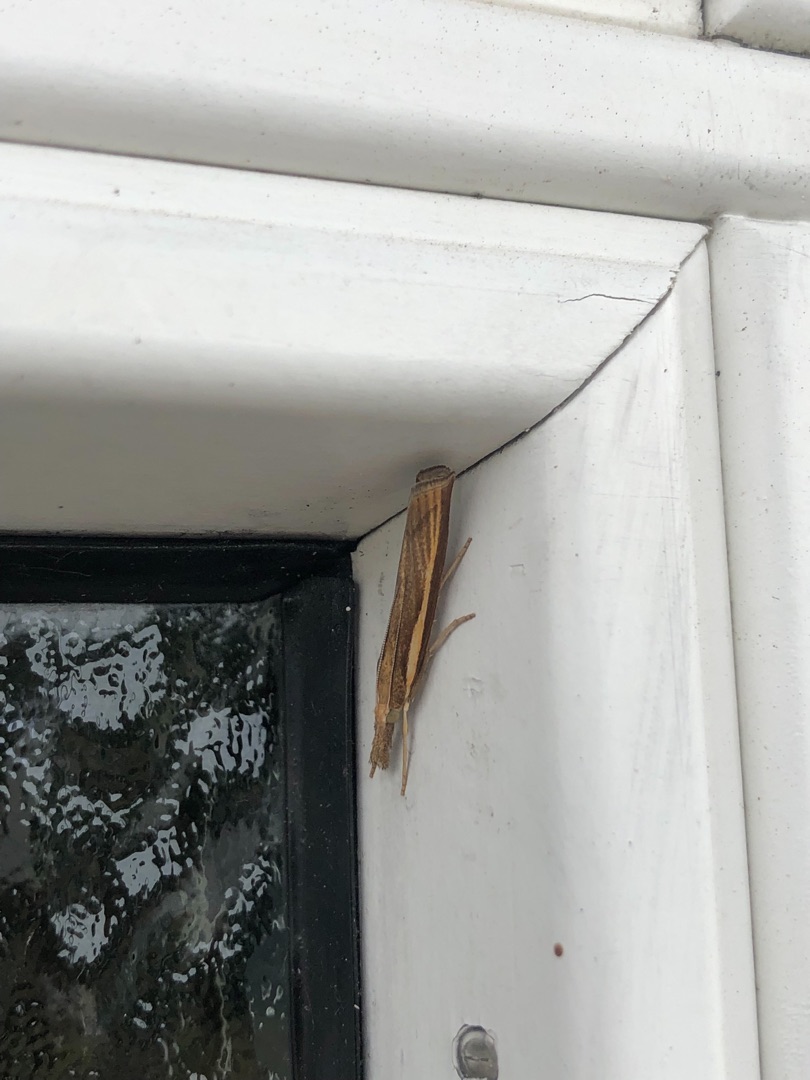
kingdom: Animalia
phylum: Arthropoda
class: Insecta
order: Lepidoptera
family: Crambidae
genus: Agriphila
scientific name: Agriphila tristellus
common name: Okkergult græsmøl
